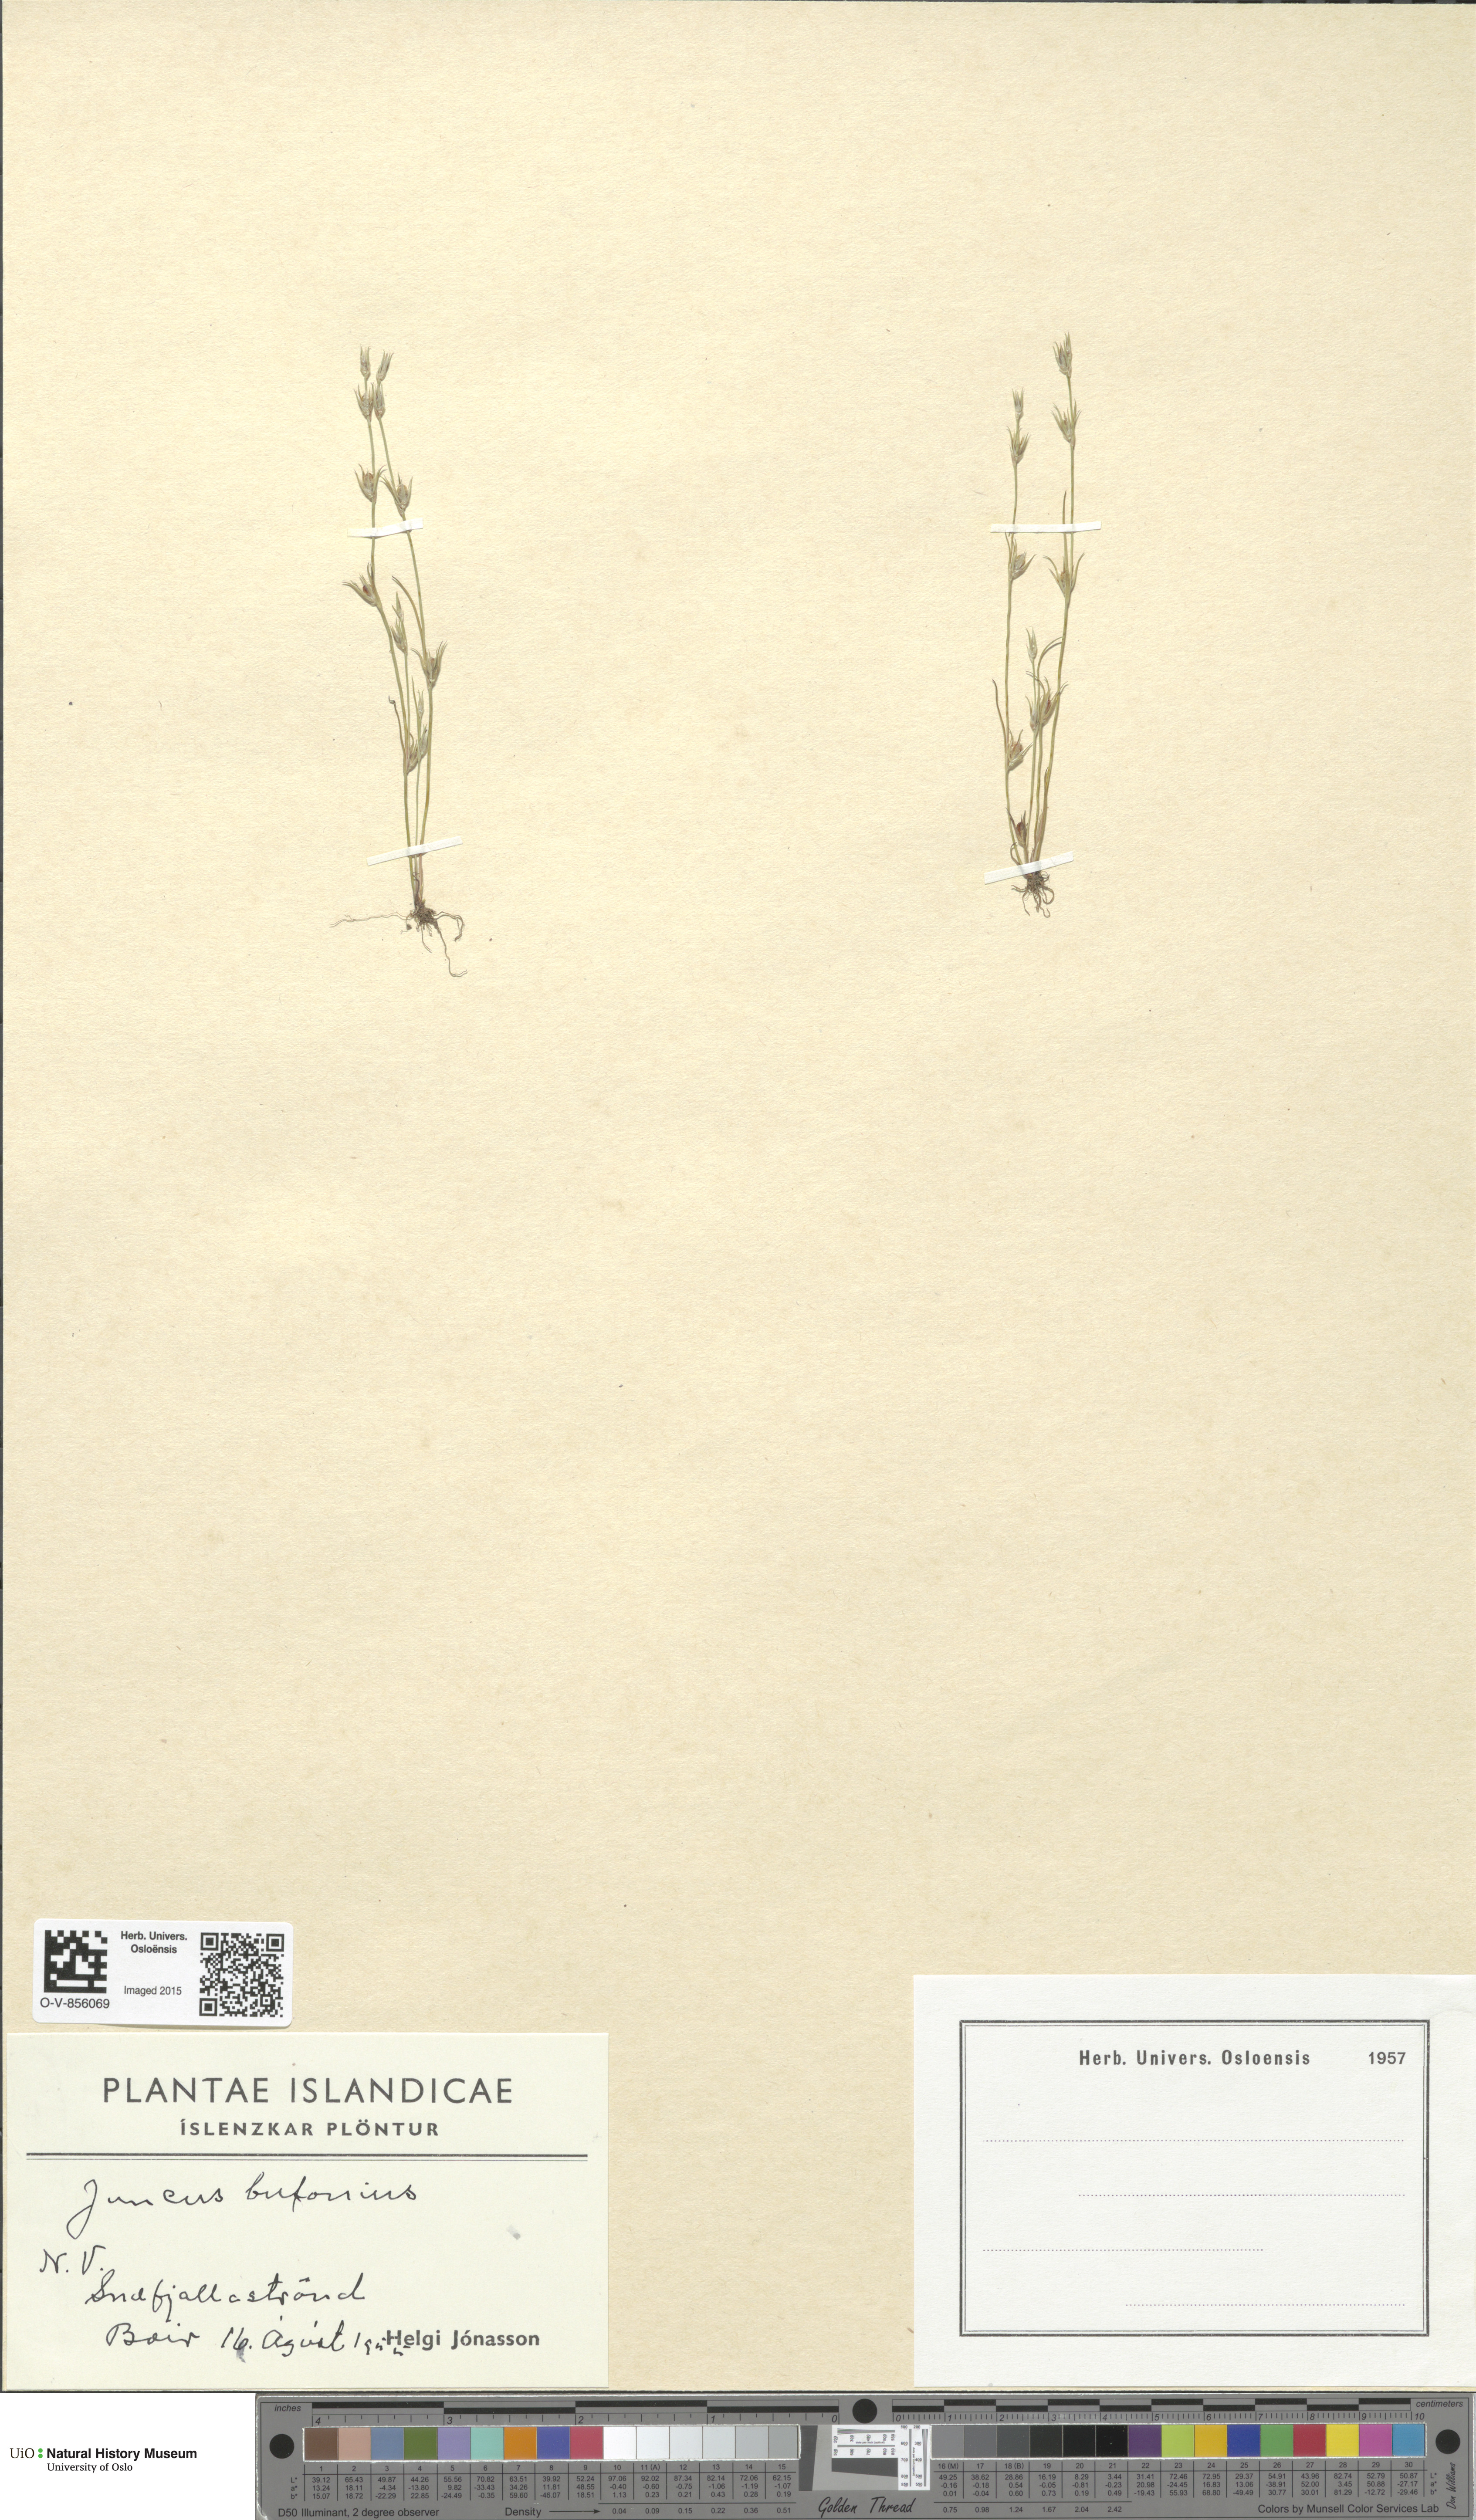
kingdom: Plantae
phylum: Tracheophyta
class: Liliopsida
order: Poales
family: Juncaceae
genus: Juncus
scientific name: Juncus bufonius
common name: Toad rush
